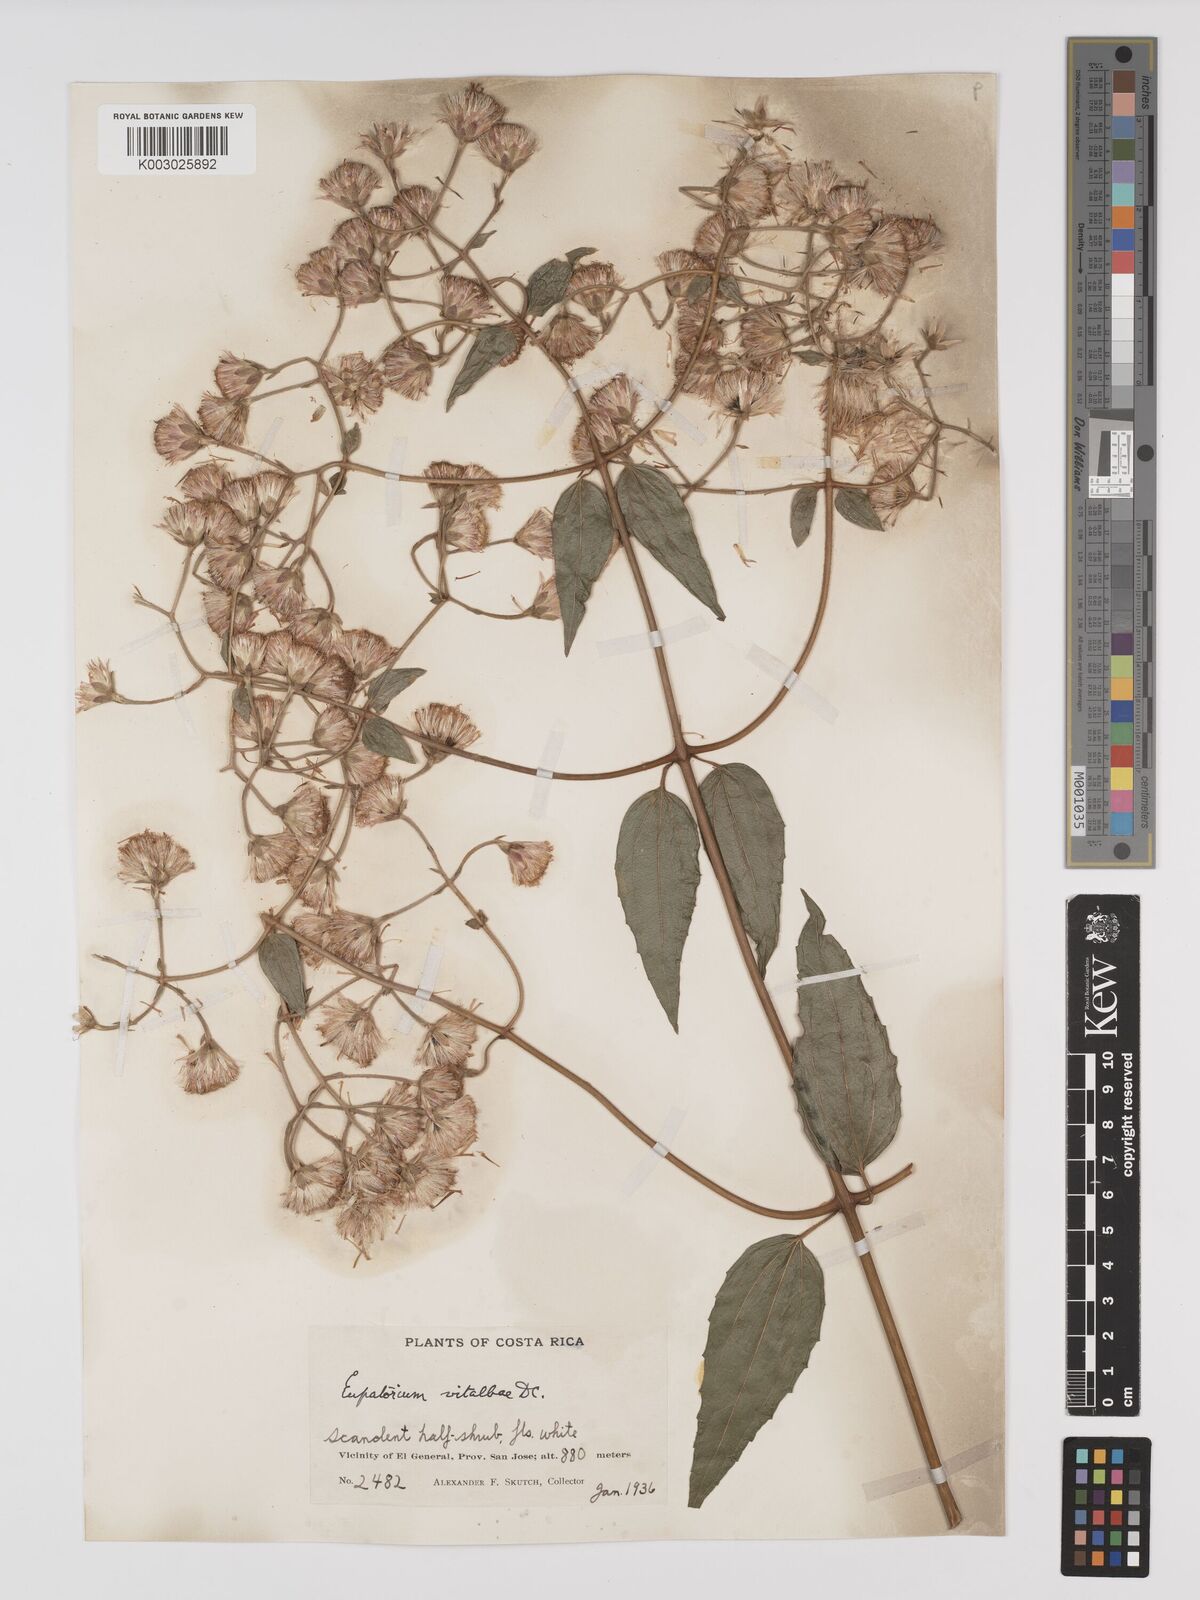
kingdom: Plantae
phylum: Tracheophyta
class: Magnoliopsida
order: Asterales
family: Asteraceae
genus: Heterocondylus
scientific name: Heterocondylus vitalbae
